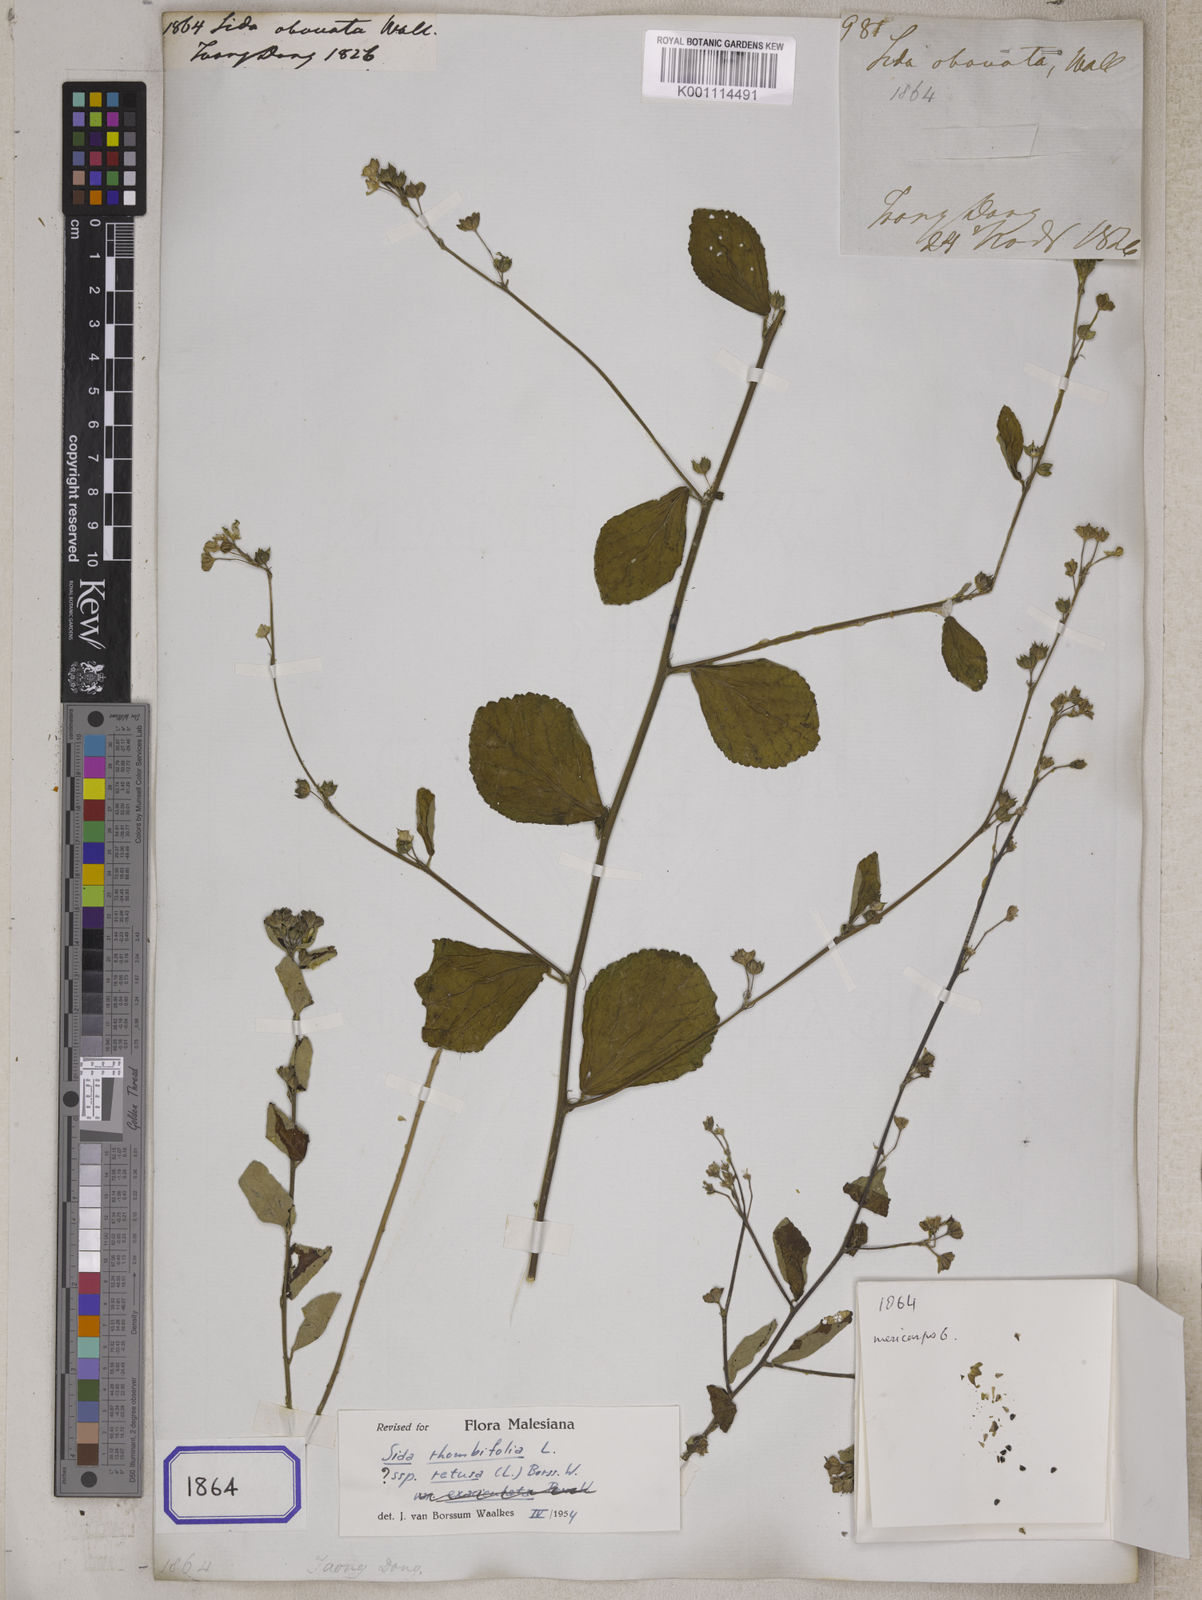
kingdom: Plantae
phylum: Tracheophyta
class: Magnoliopsida
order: Malvales
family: Malvaceae
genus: Sida
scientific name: Sida alnifolia
